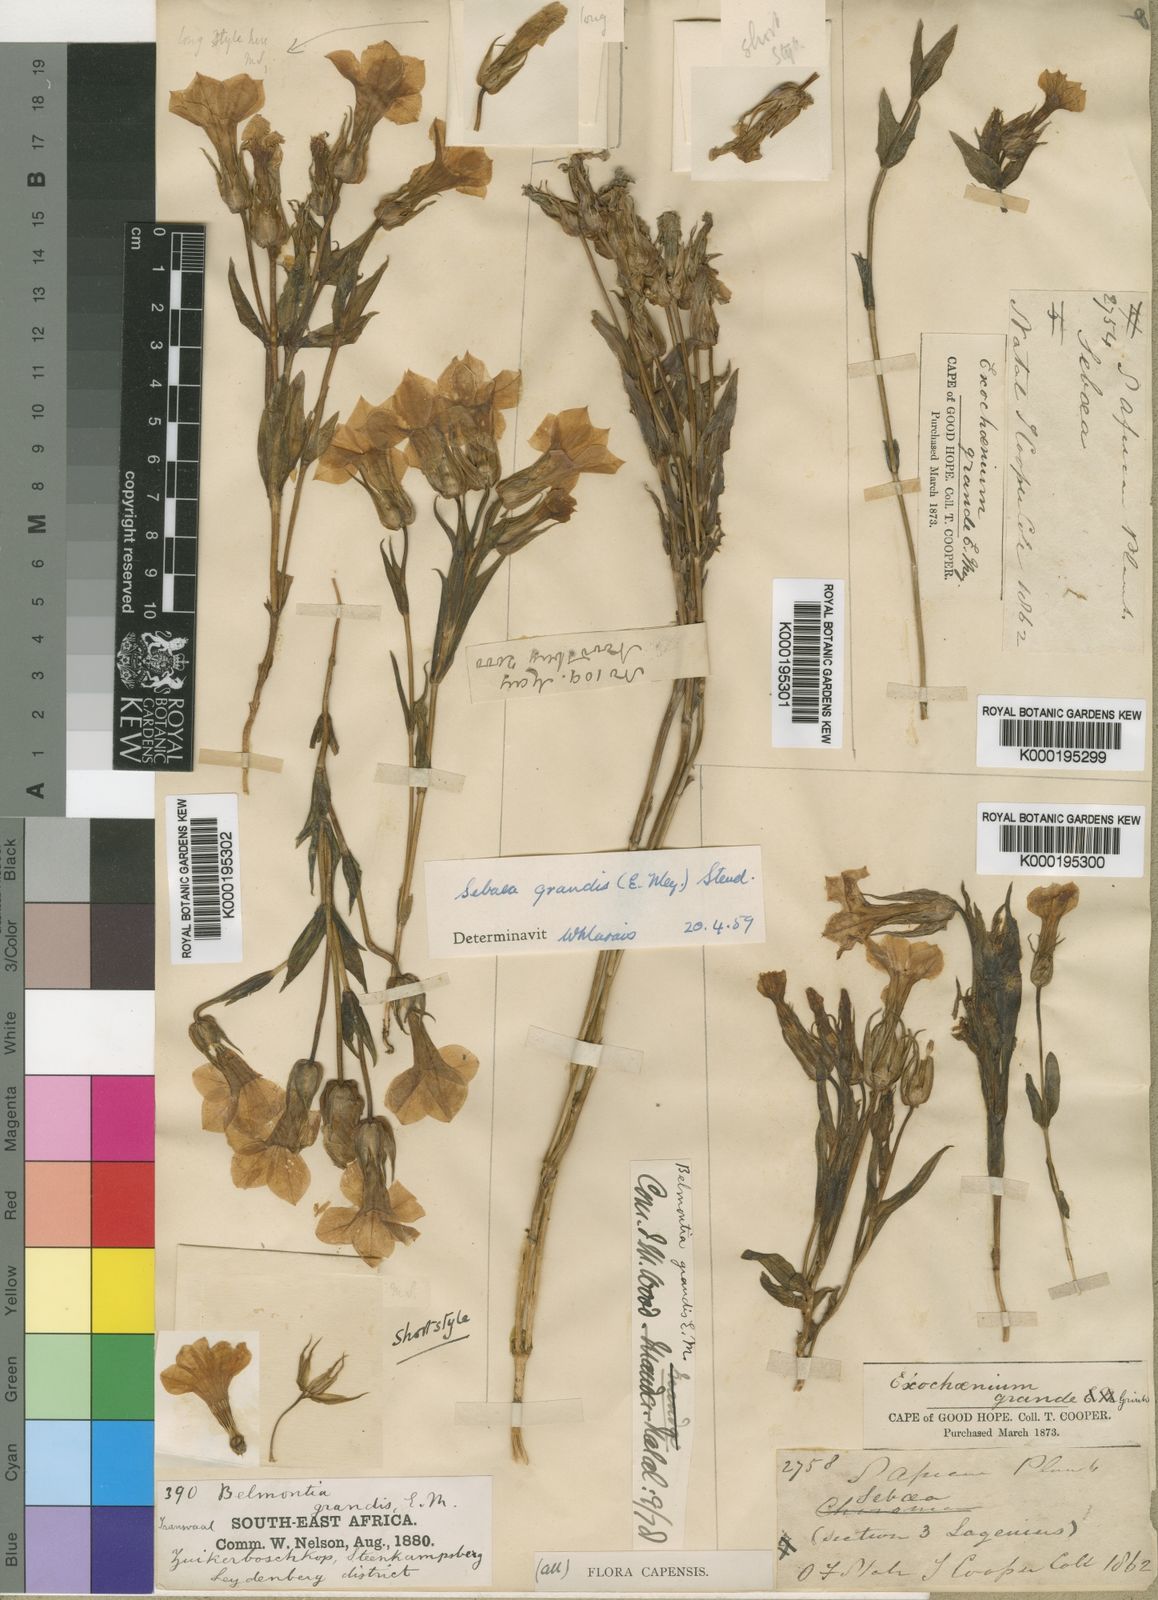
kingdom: Plantae
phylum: Tracheophyta
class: Magnoliopsida
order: Gentianales
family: Gentianaceae
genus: Exochaenium
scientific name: Exochaenium grande
